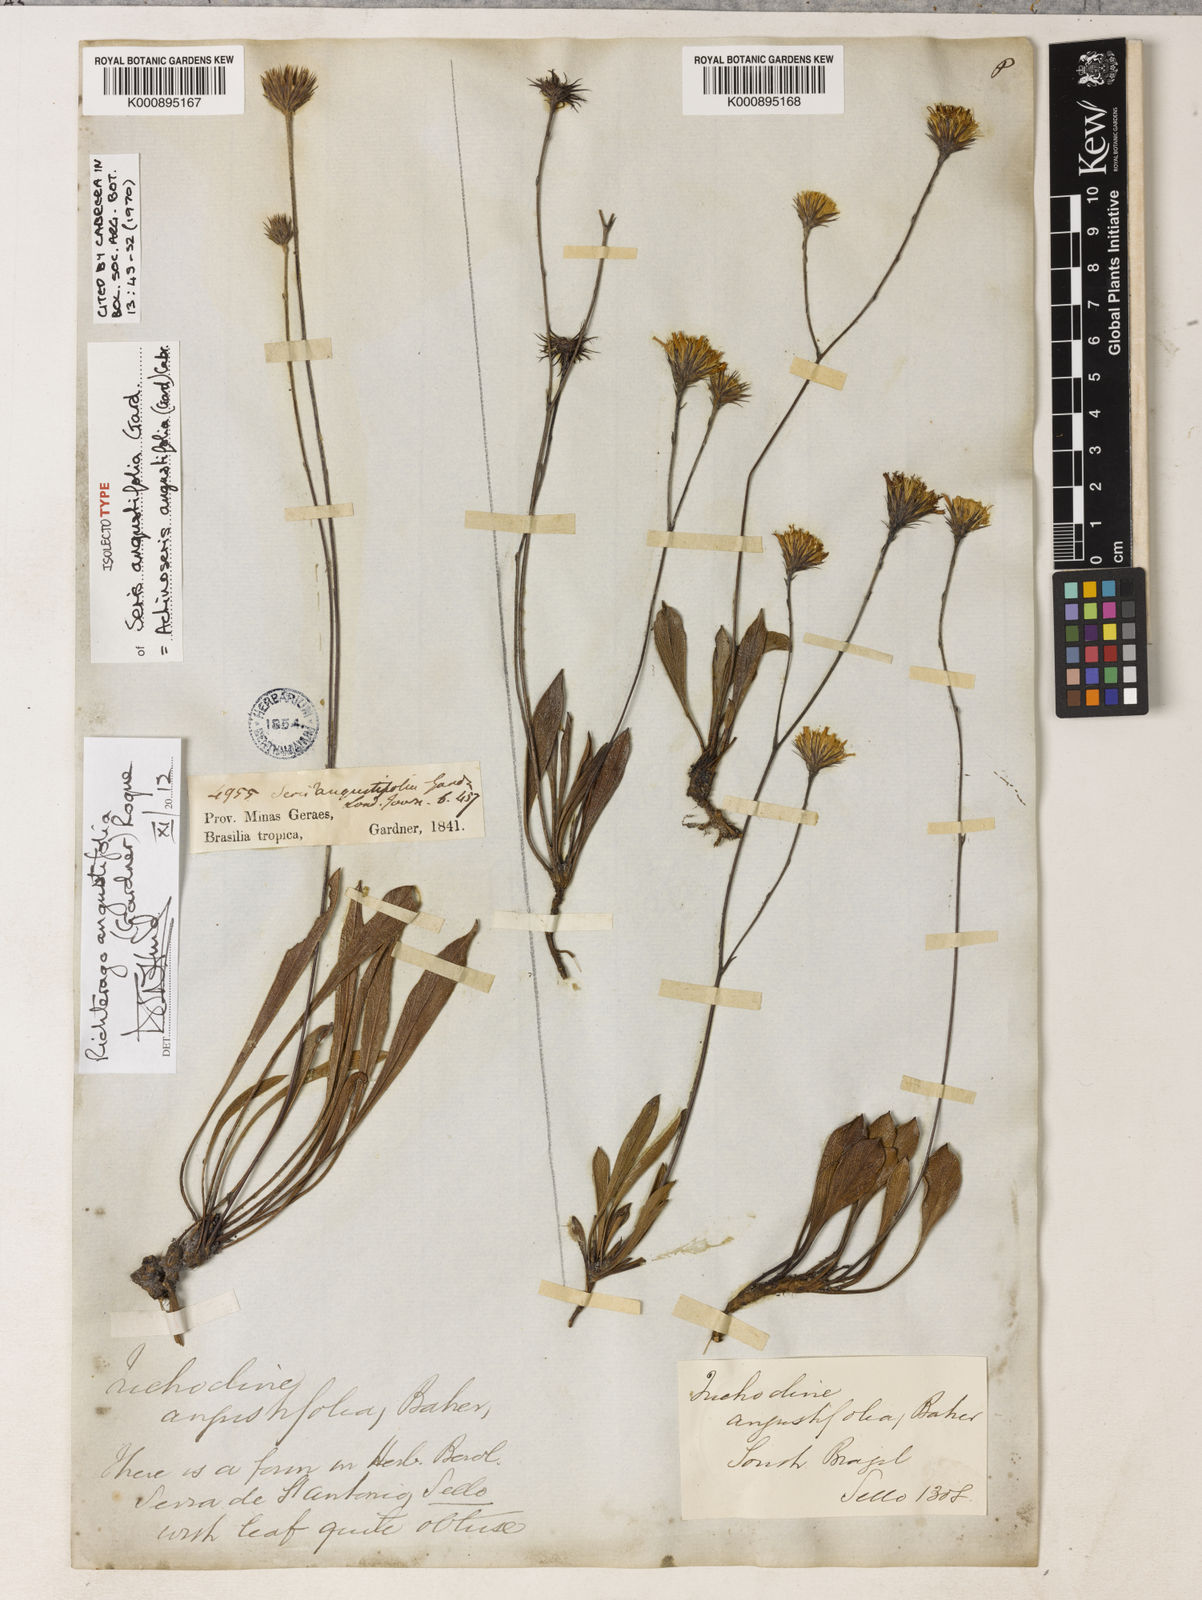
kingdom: Plantae
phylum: Tracheophyta
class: Magnoliopsida
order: Asterales
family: Asteraceae
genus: Richterago
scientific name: Richterago angustifolia
